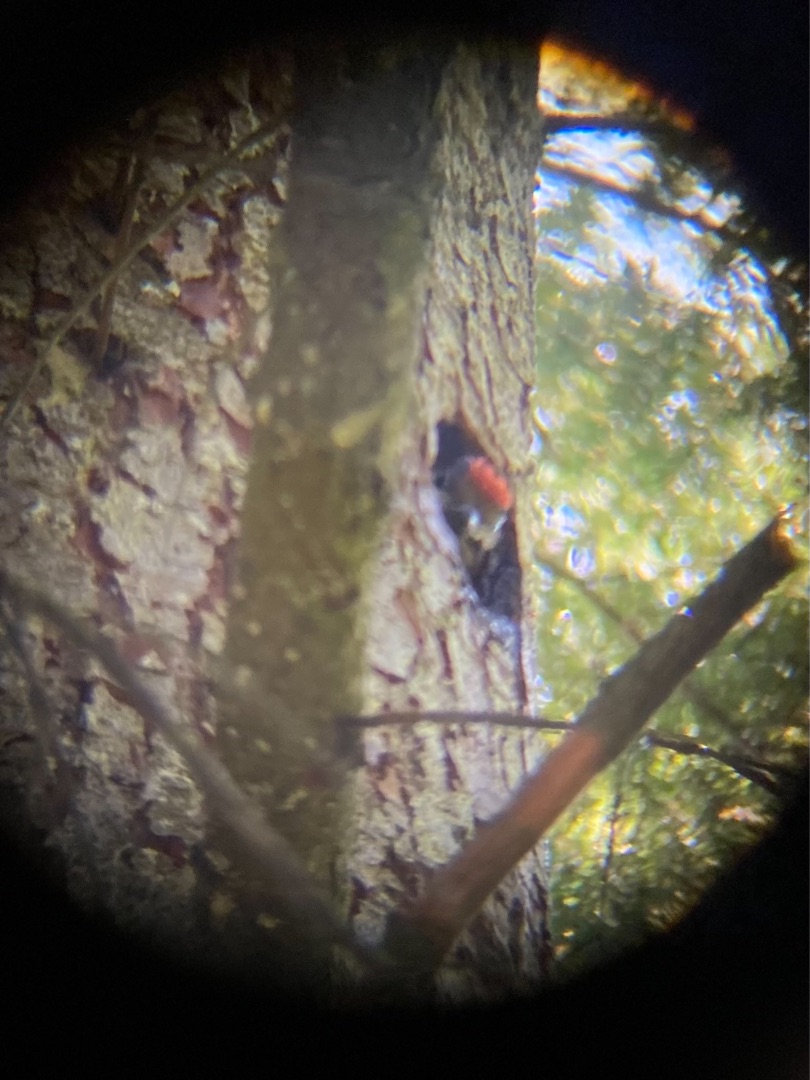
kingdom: Animalia
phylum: Chordata
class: Aves
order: Piciformes
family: Picidae
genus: Dendrocopos
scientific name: Dendrocopos major
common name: Stor flagspætte
